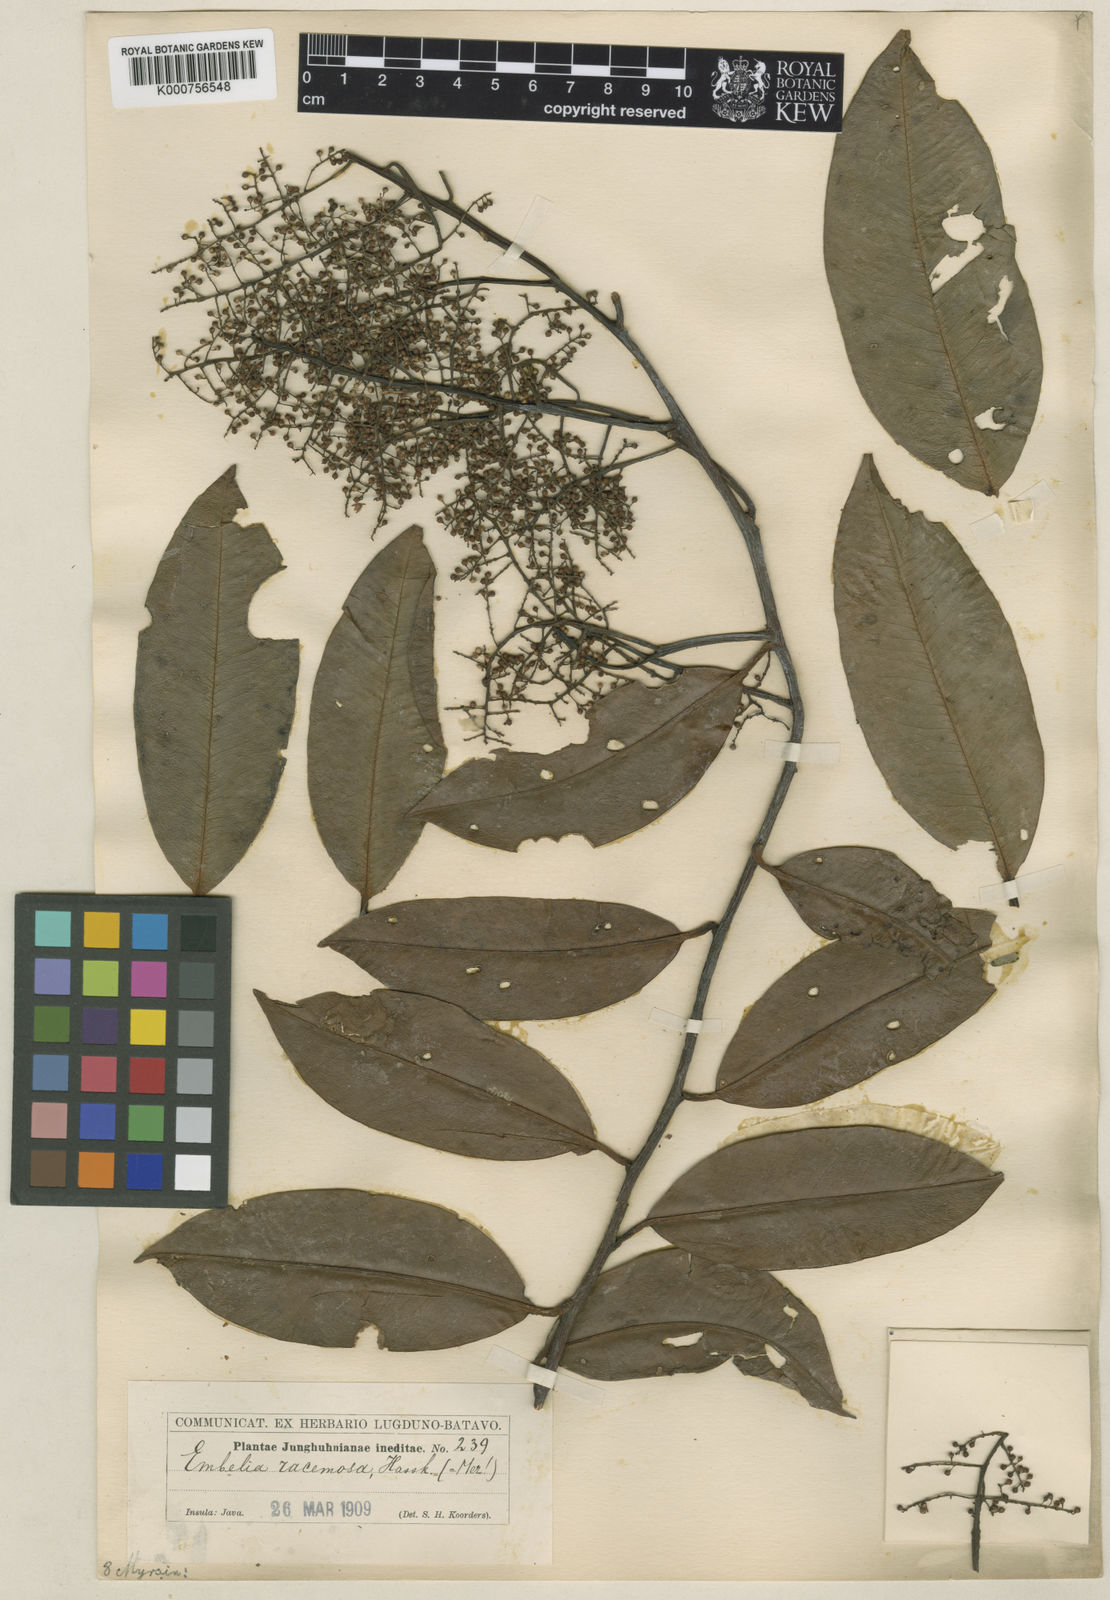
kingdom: Plantae
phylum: Tracheophyta
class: Magnoliopsida
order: Ericales
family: Primulaceae
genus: Embelia
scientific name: Embelia racemosa
